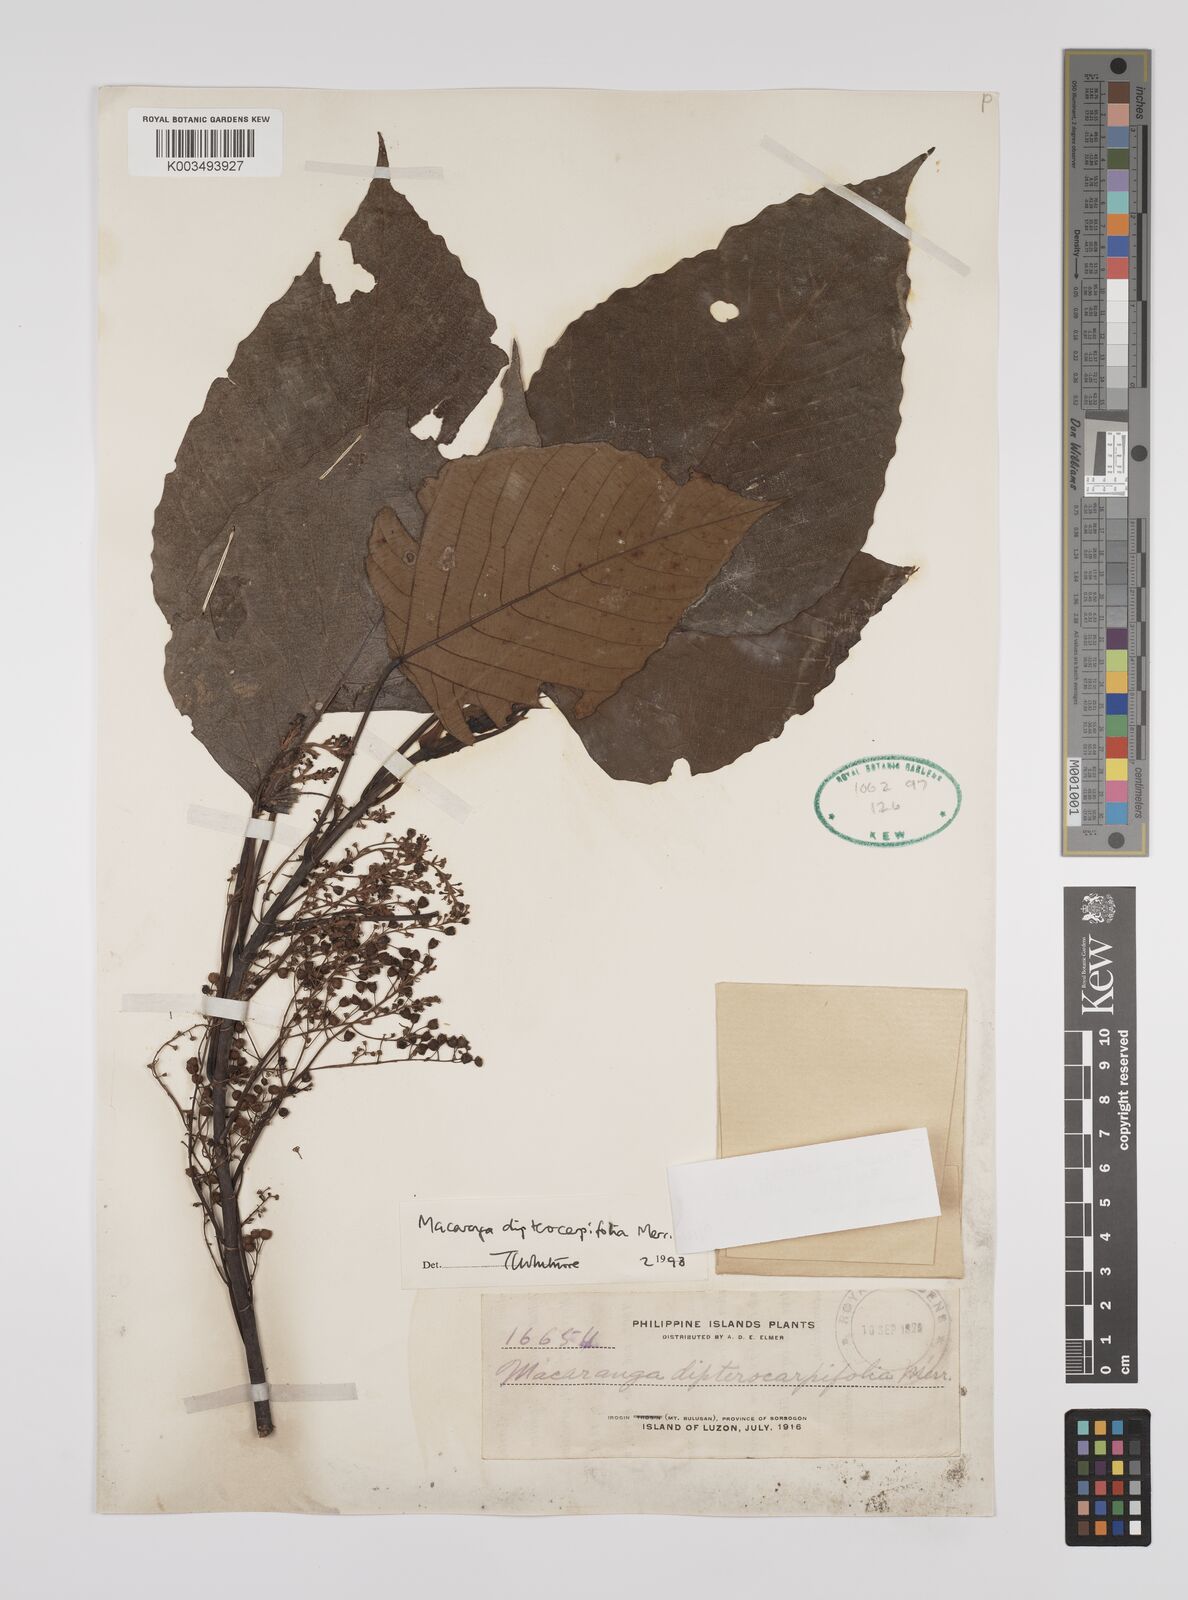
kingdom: Plantae
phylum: Tracheophyta
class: Magnoliopsida
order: Malpighiales
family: Euphorbiaceae
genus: Macaranga
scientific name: Macaranga sinensis
